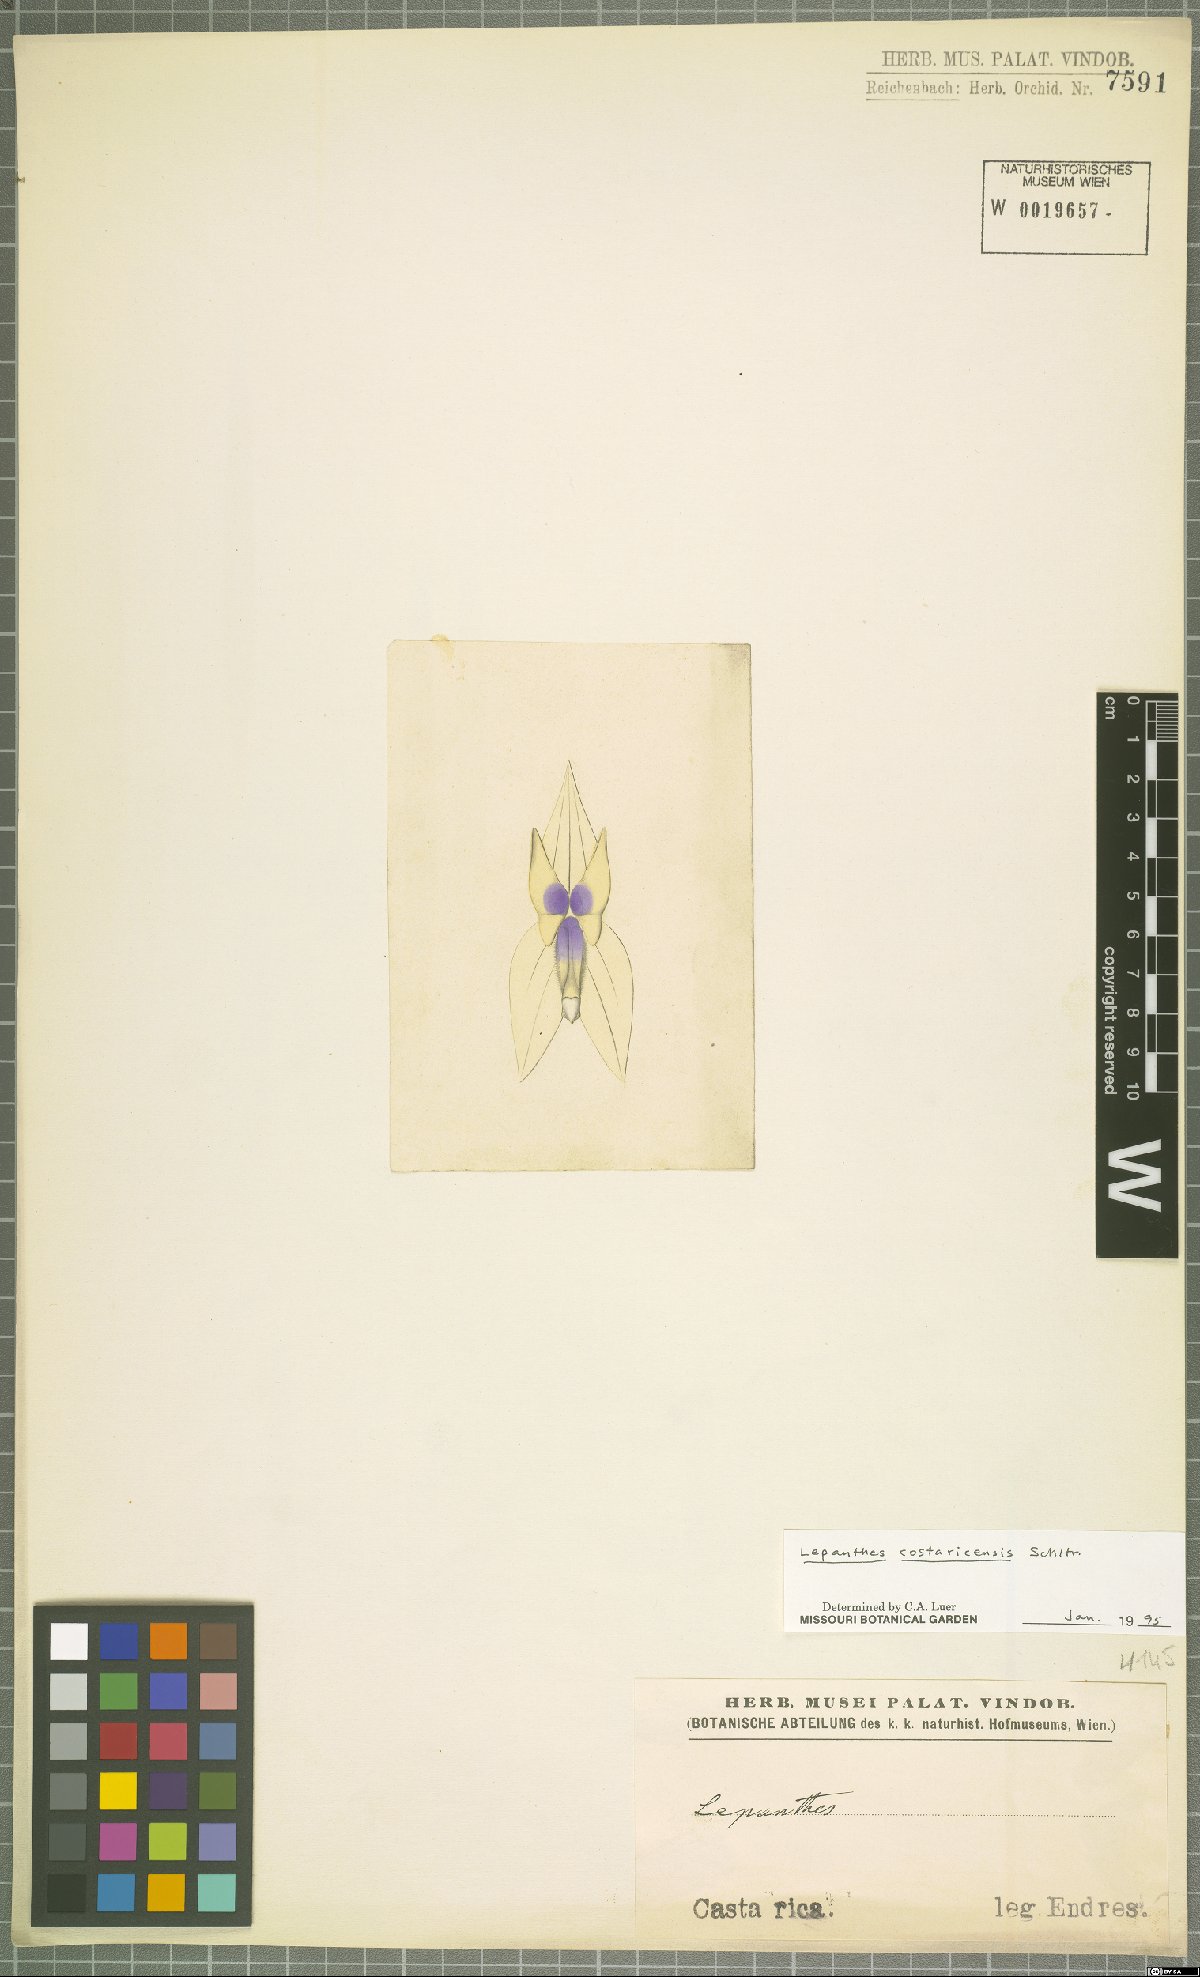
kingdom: Plantae
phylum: Tracheophyta
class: Liliopsida
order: Asparagales
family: Orchidaceae
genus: Lepanthes
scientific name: Lepanthes costaricensis
